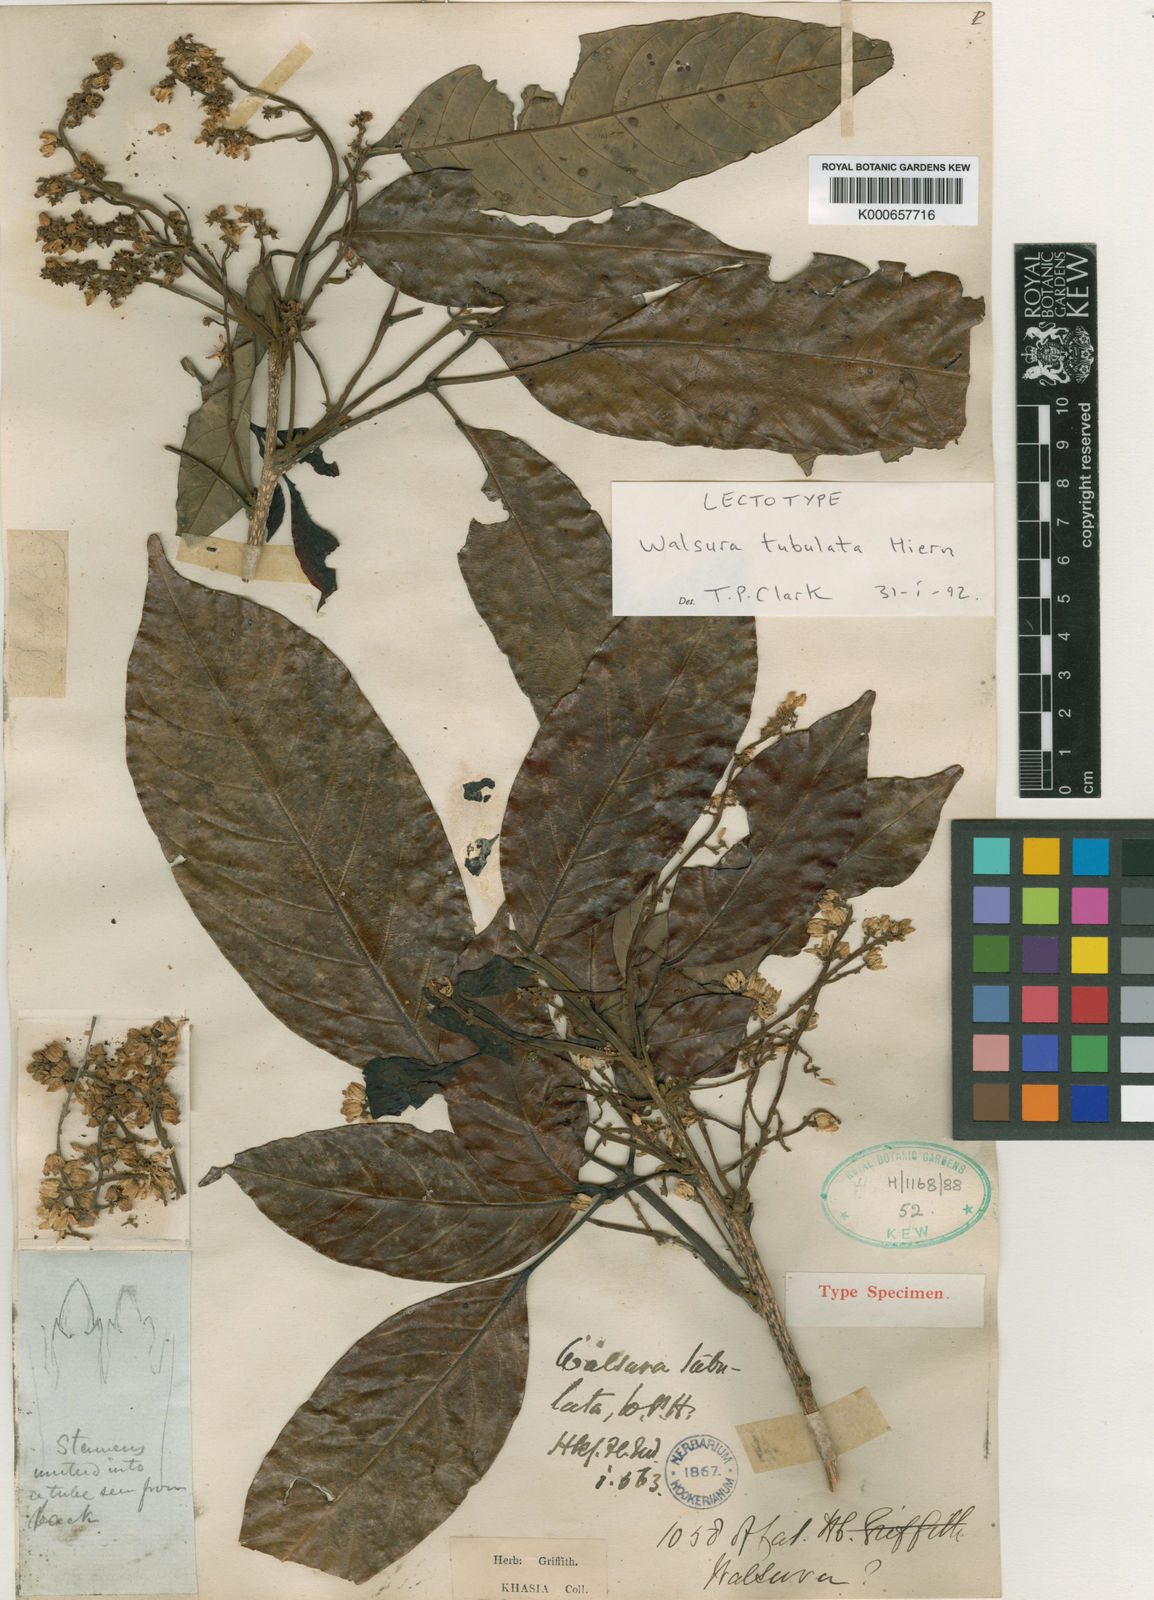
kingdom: Plantae
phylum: Tracheophyta
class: Magnoliopsida
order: Sapindales
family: Meliaceae
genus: Walsura
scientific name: Walsura tubulata
